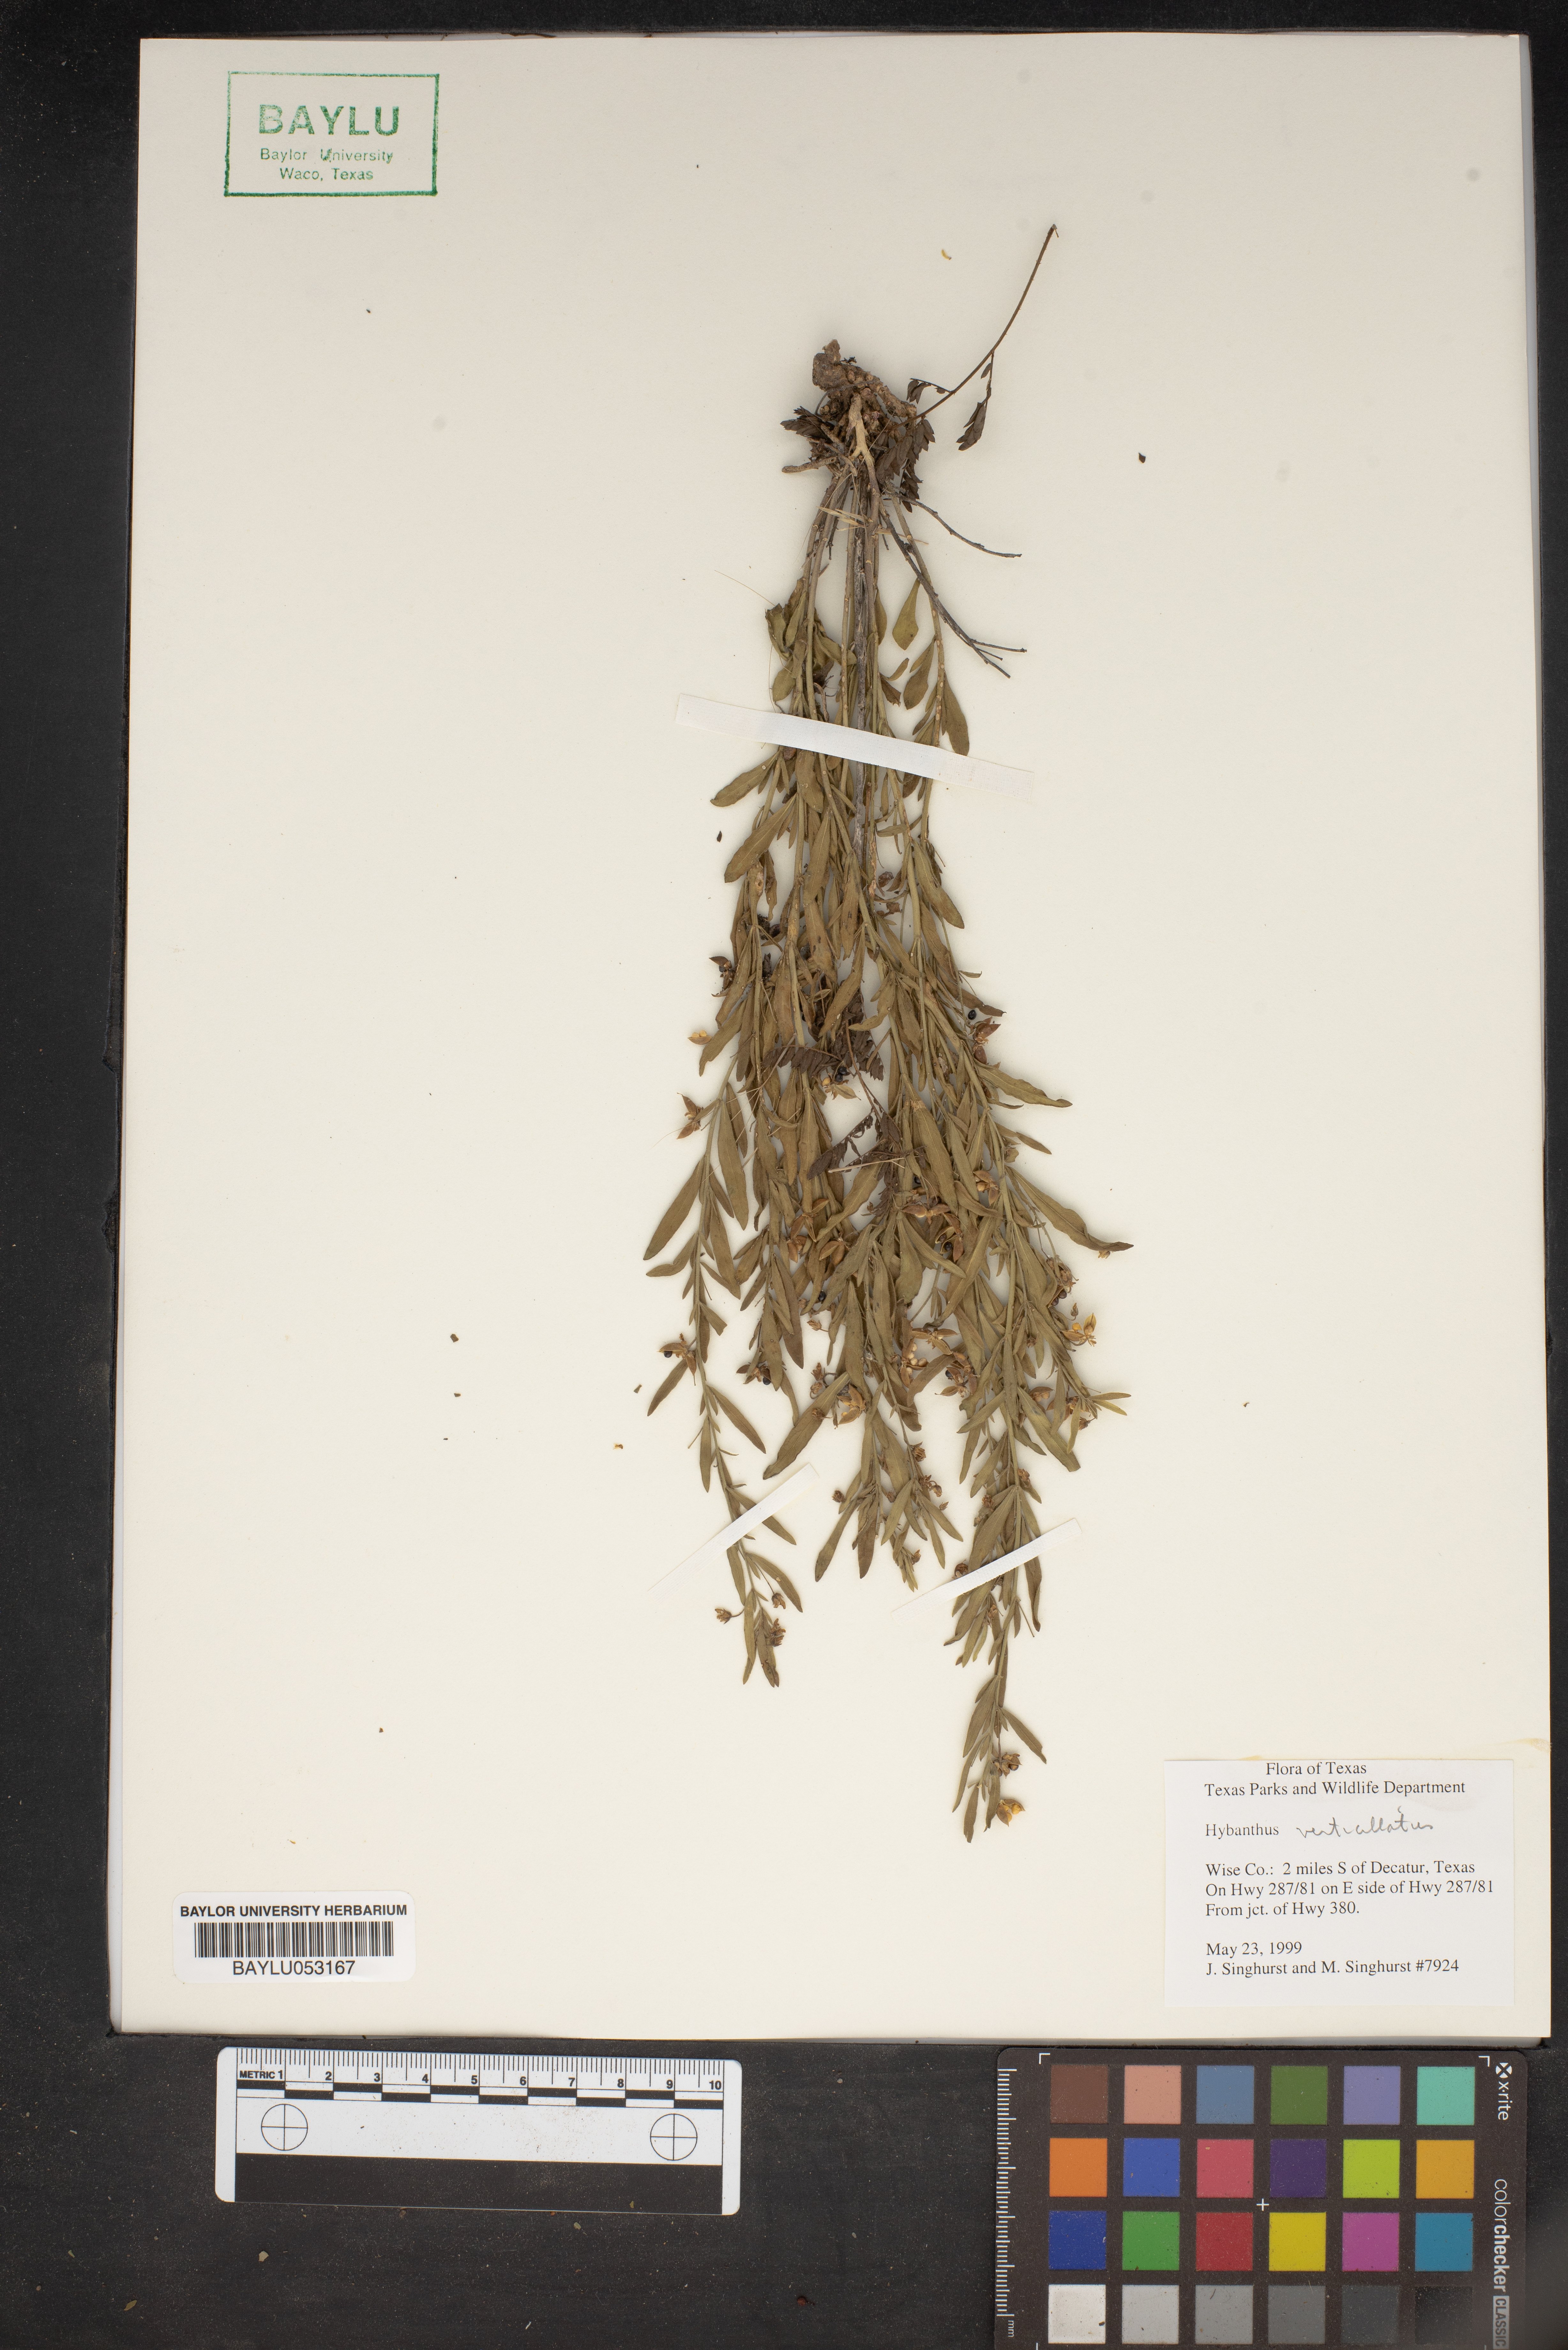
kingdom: Plantae
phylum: Tracheophyta
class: Magnoliopsida
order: Malpighiales
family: Violaceae
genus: Pombalia
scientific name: Pombalia verticillata
